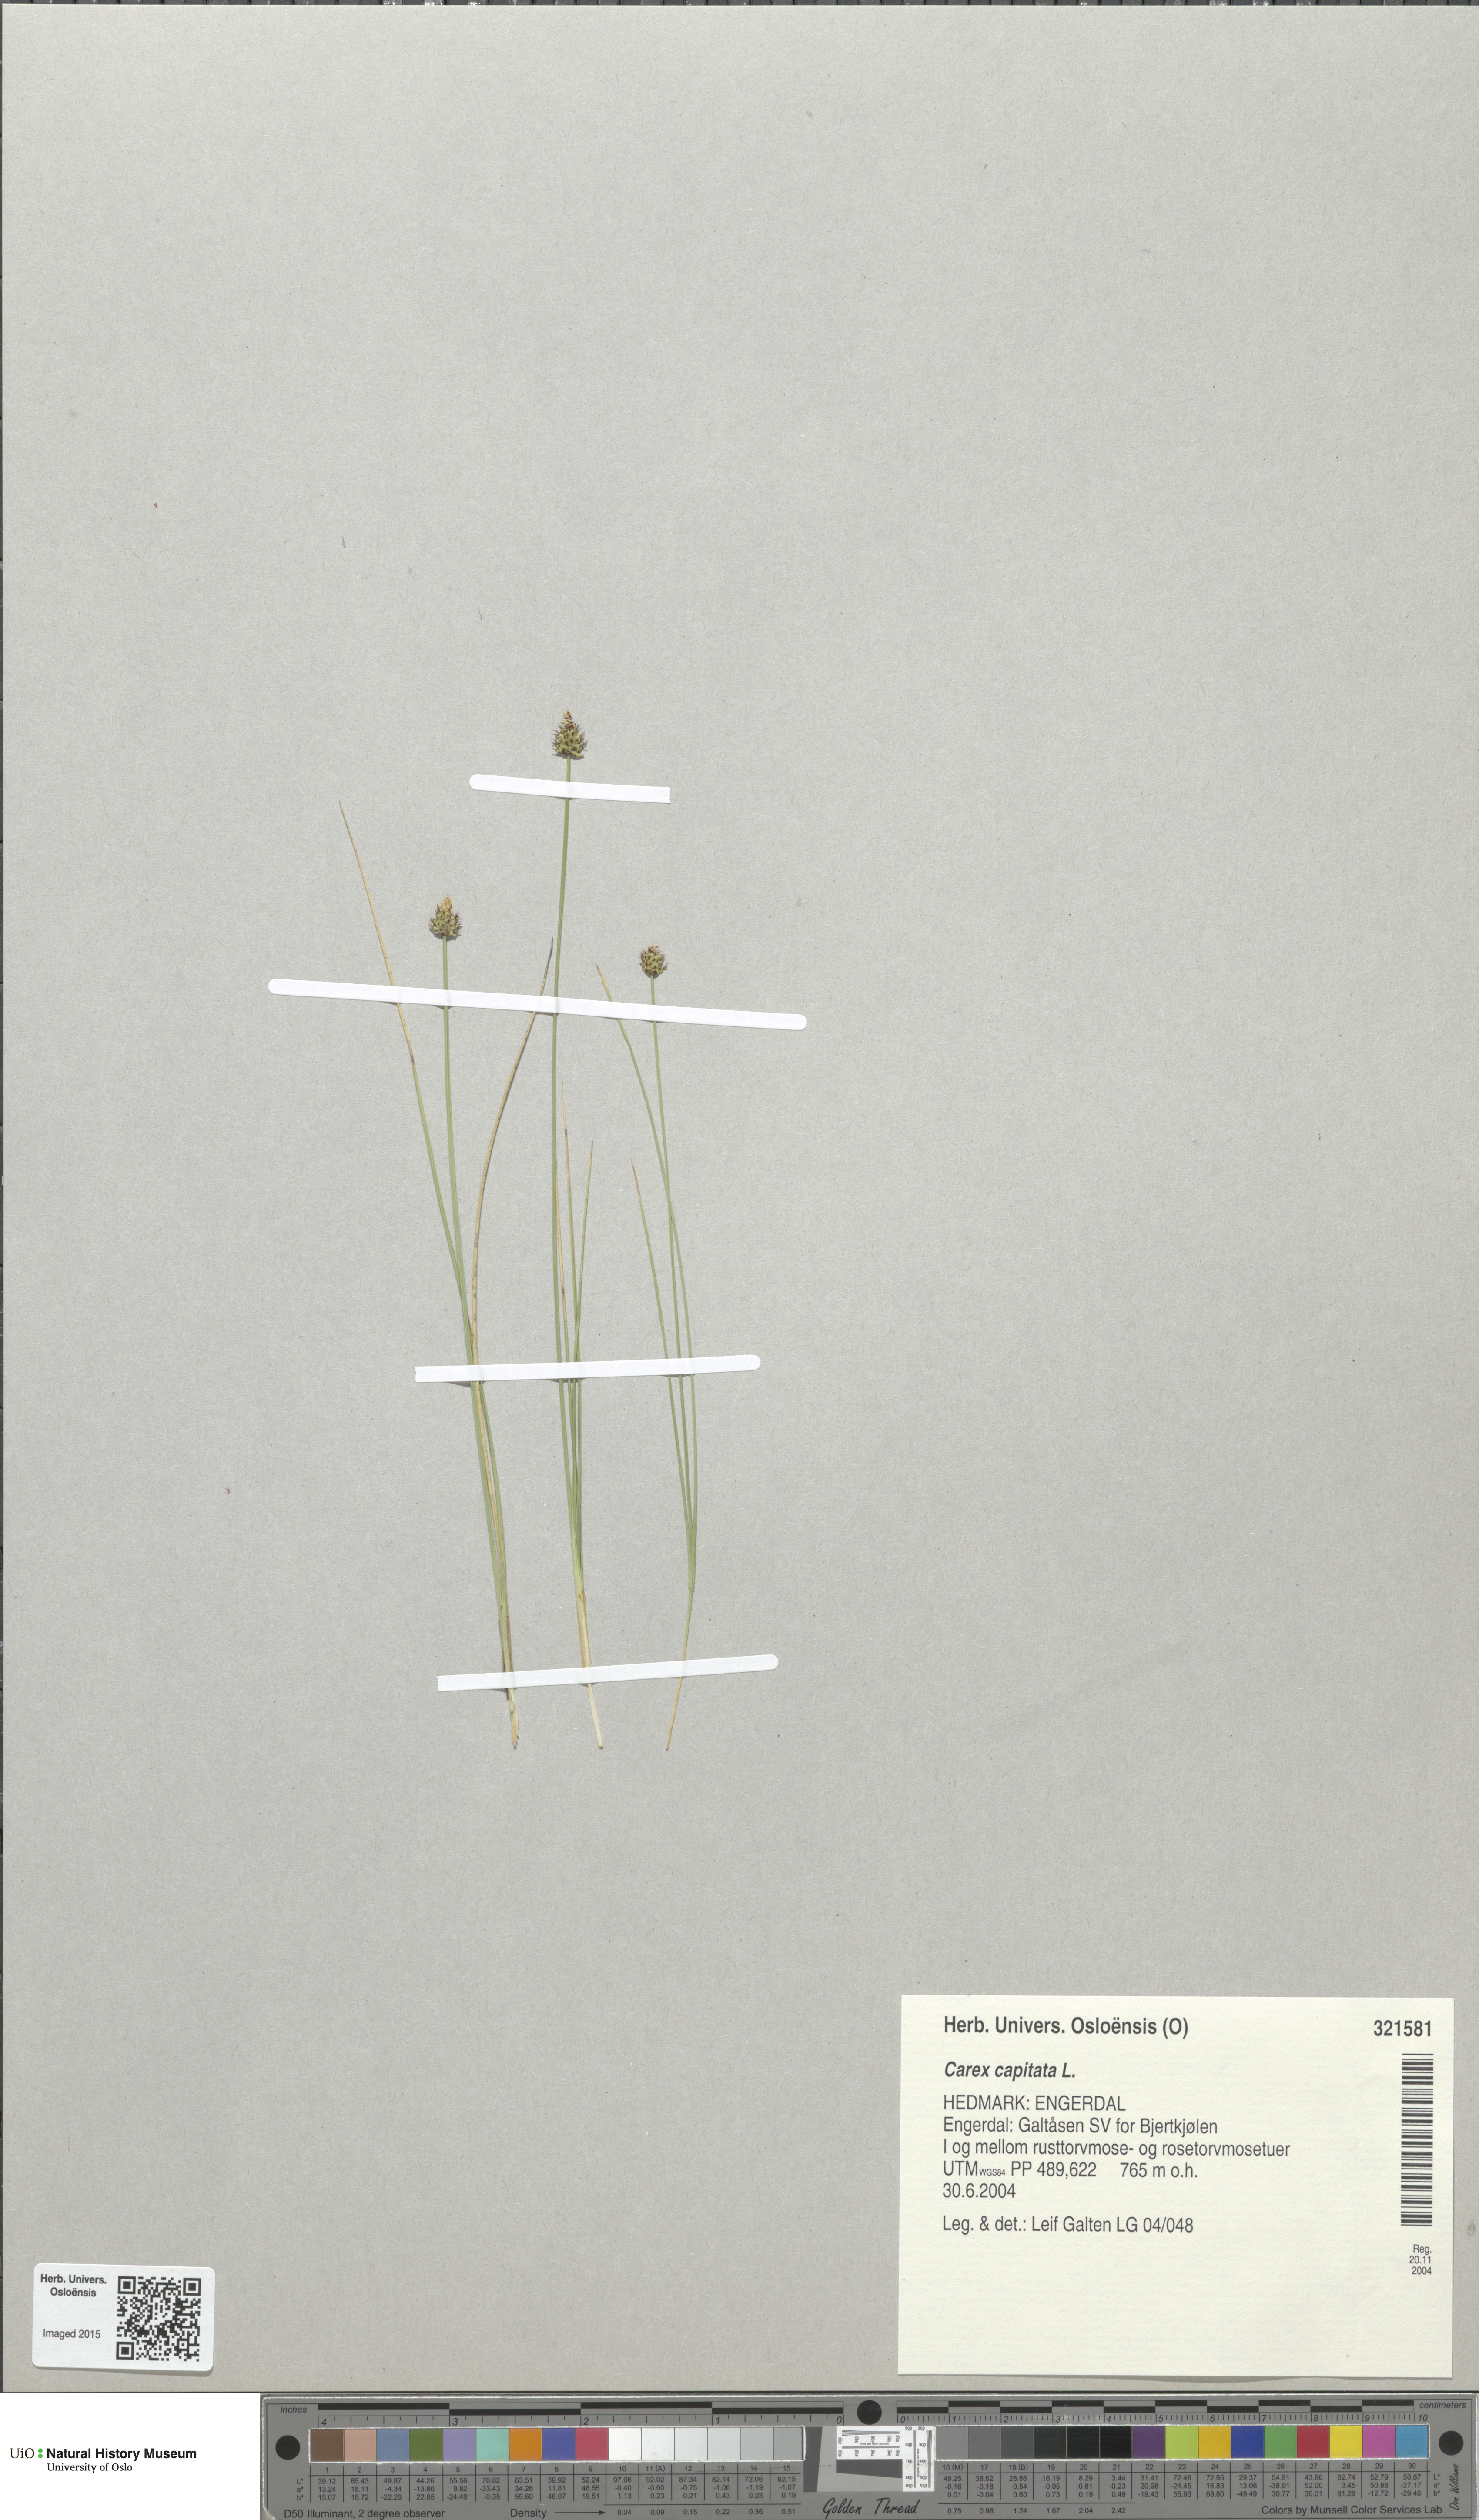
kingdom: Plantae
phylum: Tracheophyta
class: Liliopsida
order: Poales
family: Cyperaceae
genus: Carex
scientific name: Carex capitata
